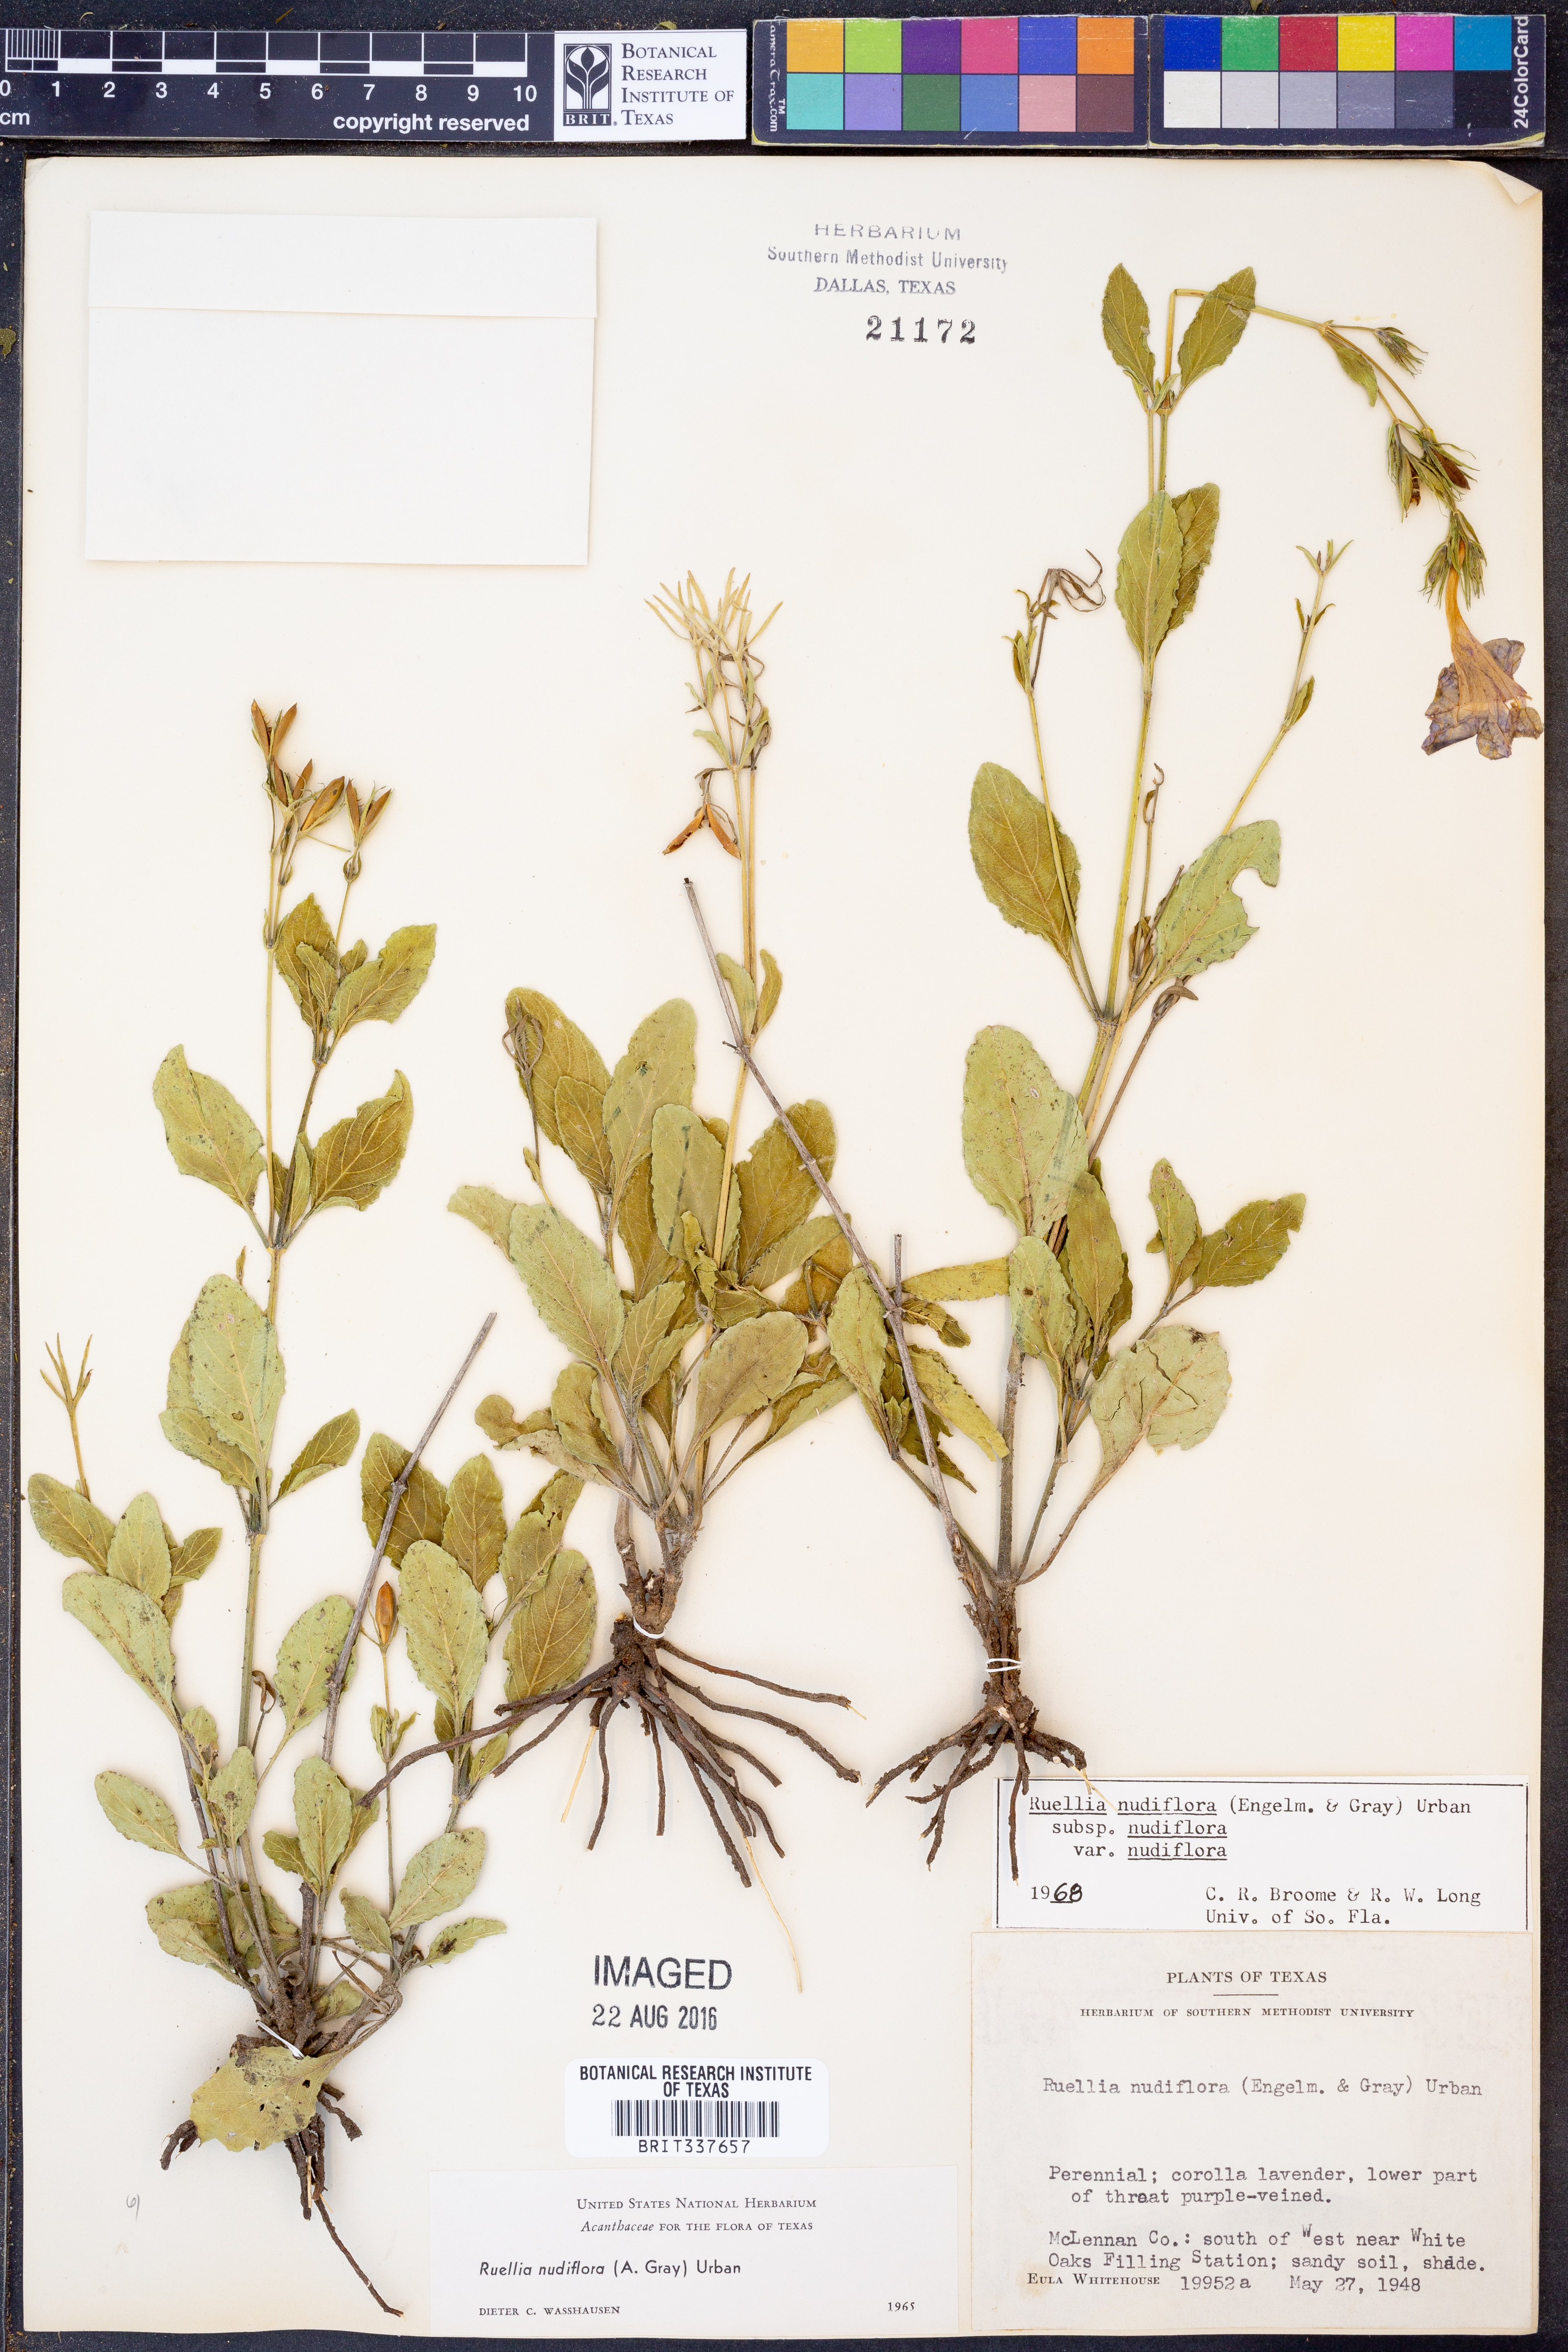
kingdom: Plantae
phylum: Tracheophyta
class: Magnoliopsida
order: Lamiales
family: Acanthaceae
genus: Ruellia
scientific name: Ruellia ciliatiflora
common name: Hairyflower wild petunia
